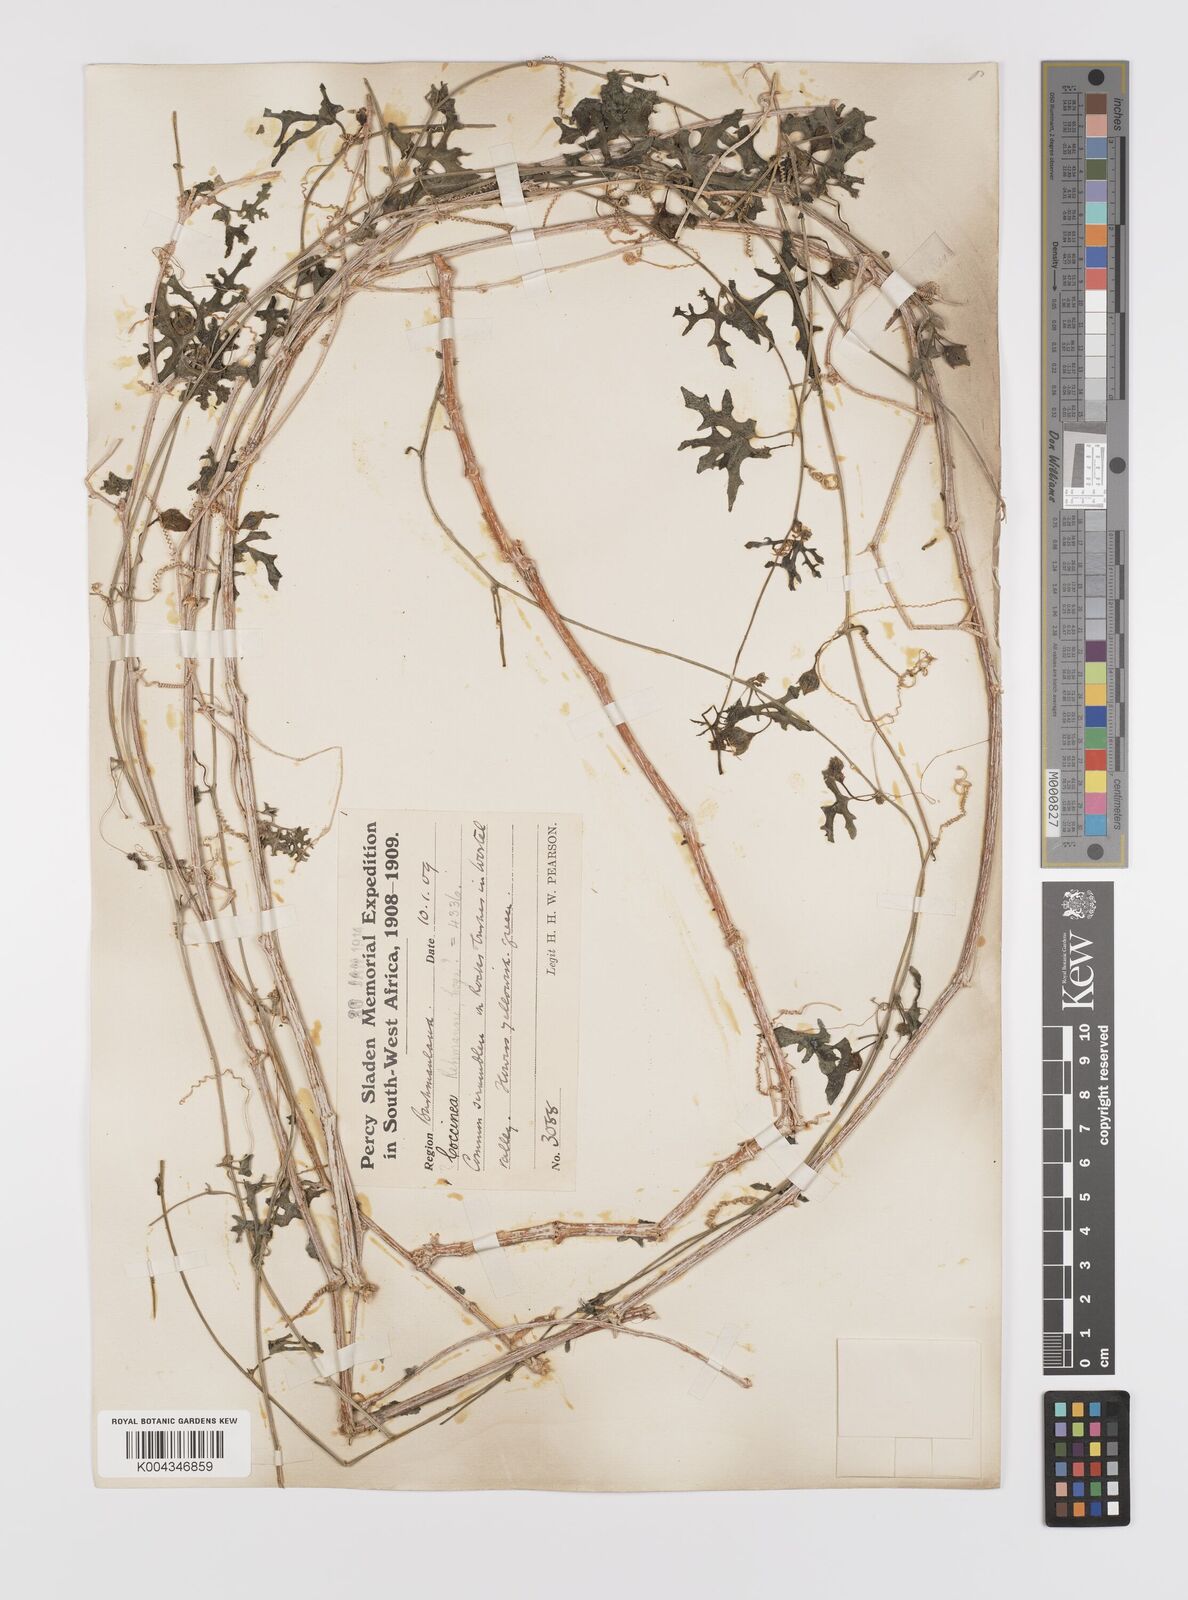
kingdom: Plantae
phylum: Tracheophyta
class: Magnoliopsida
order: Cucurbitales
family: Cucurbitaceae
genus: Coccinia
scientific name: Coccinia rehmannii
